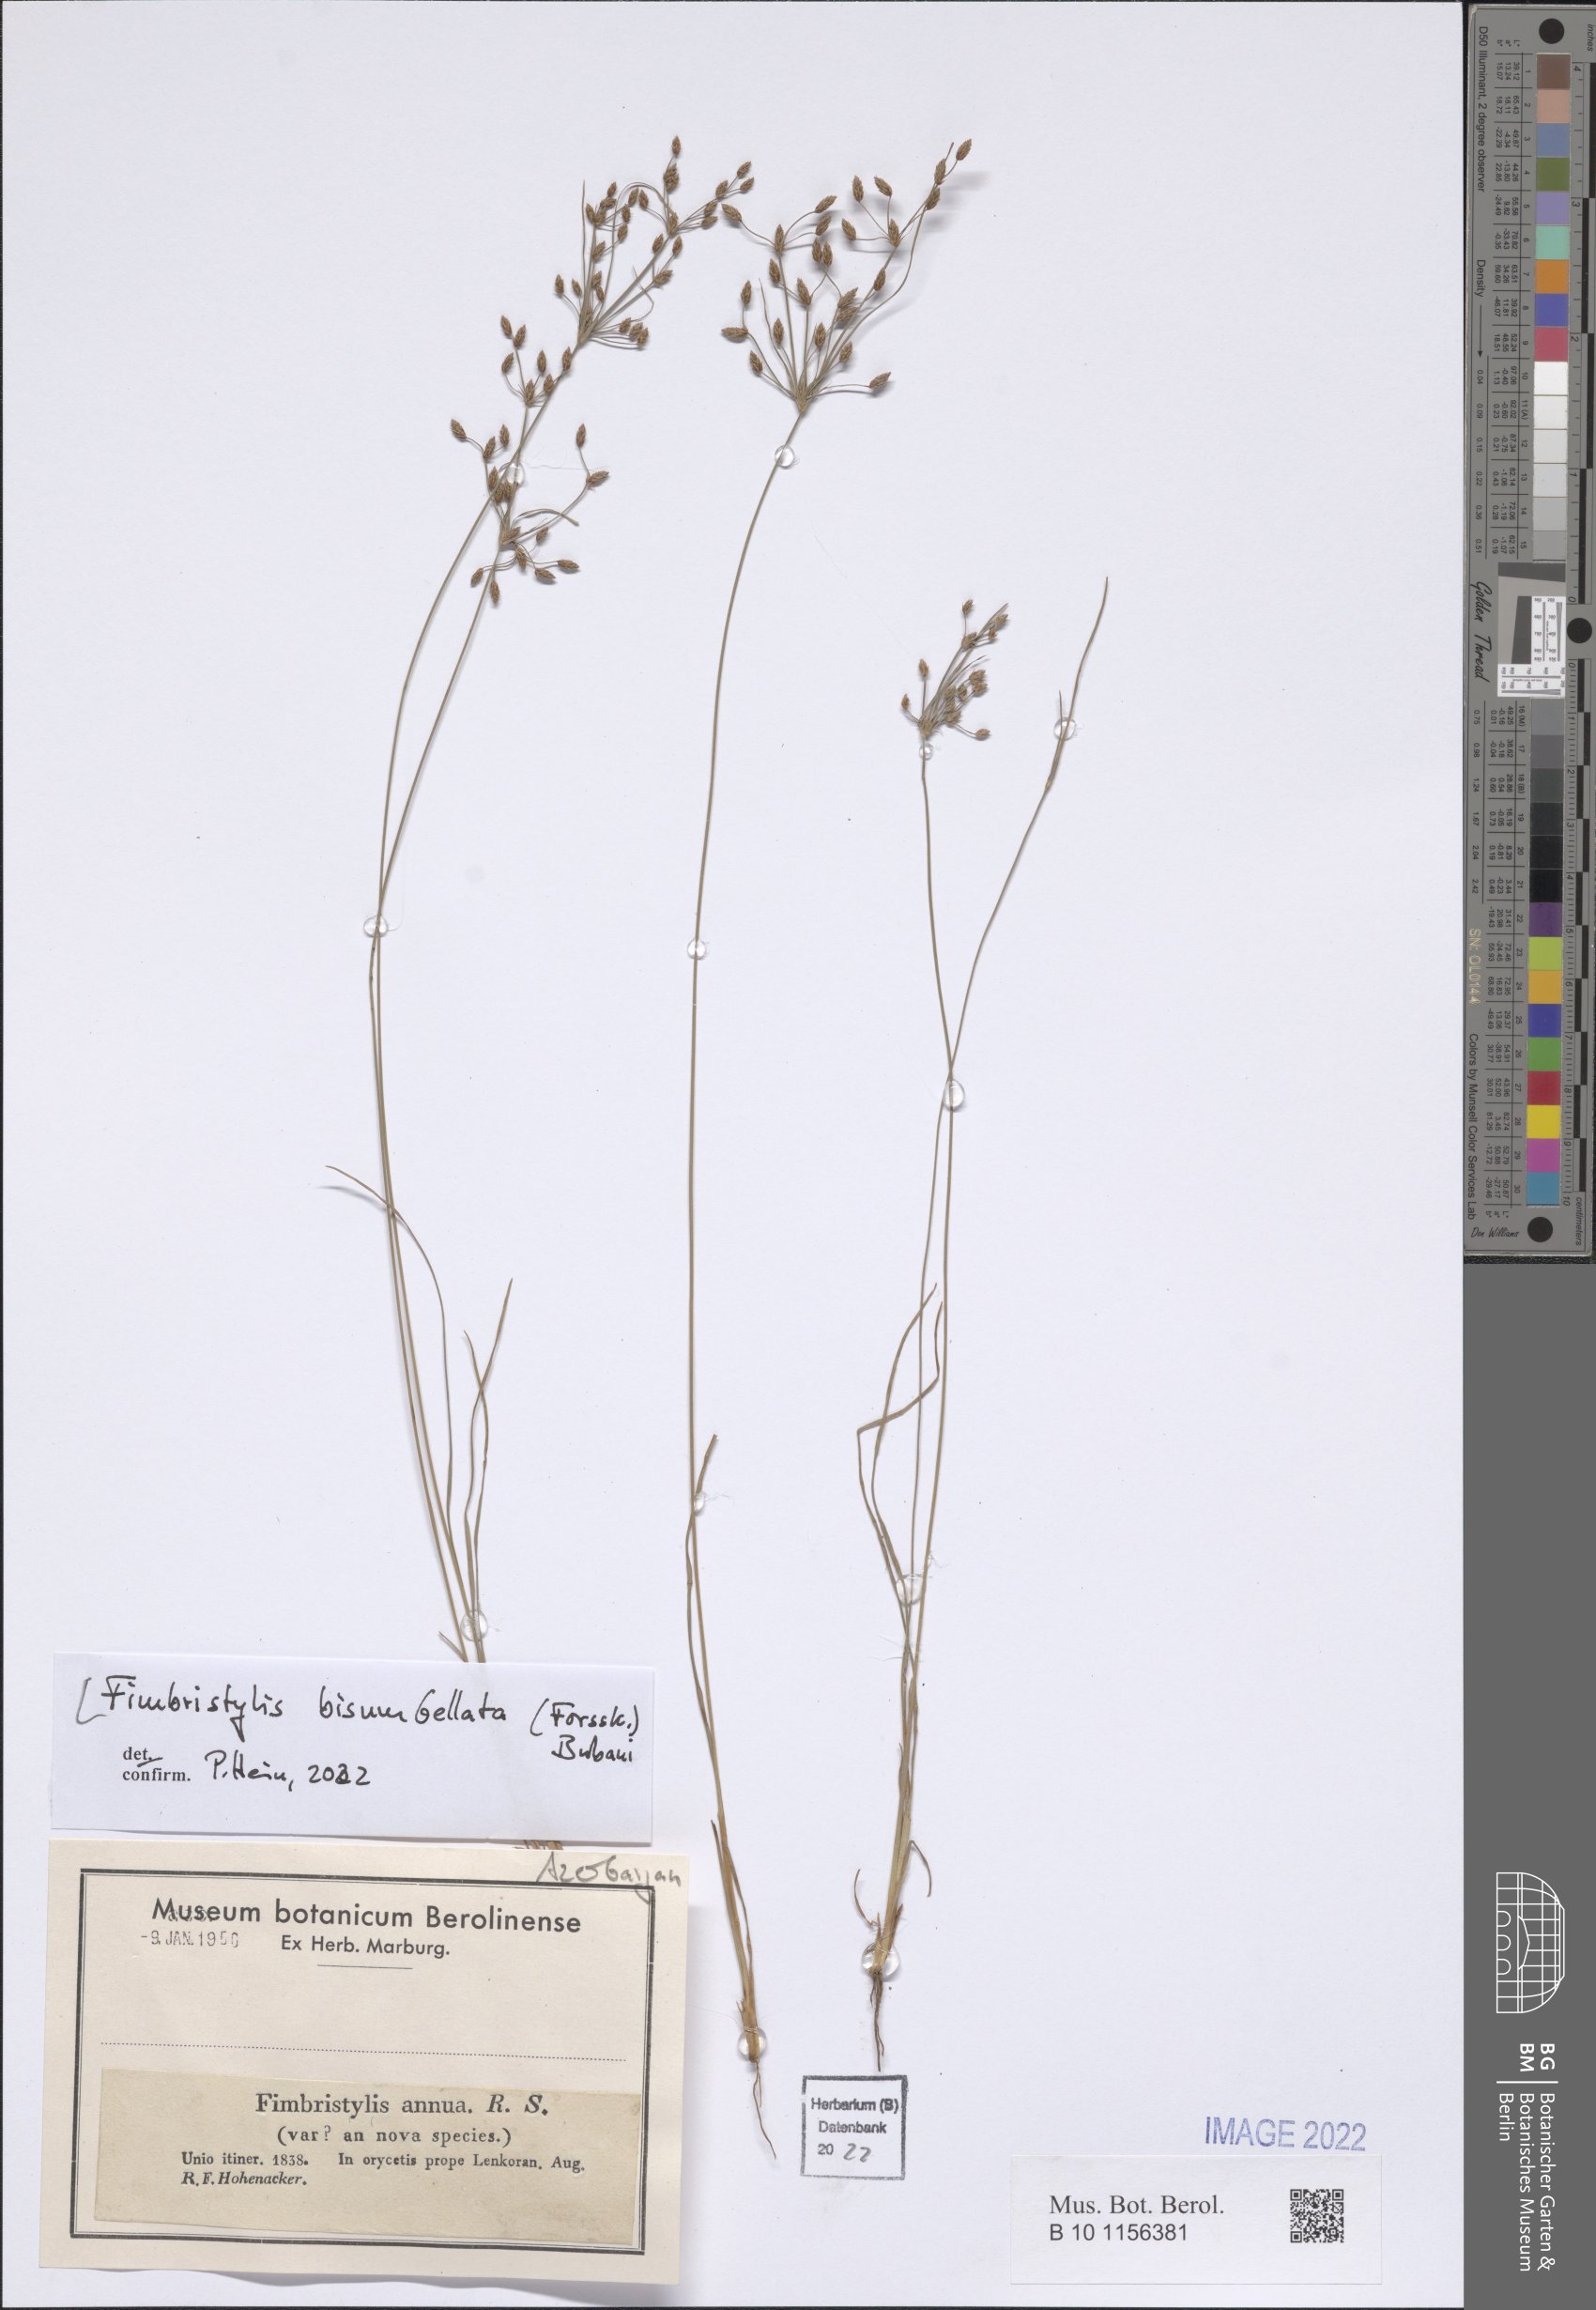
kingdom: Plantae
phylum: Tracheophyta
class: Liliopsida
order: Poales
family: Cyperaceae
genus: Fimbristylis
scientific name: Fimbristylis bisumbellata
